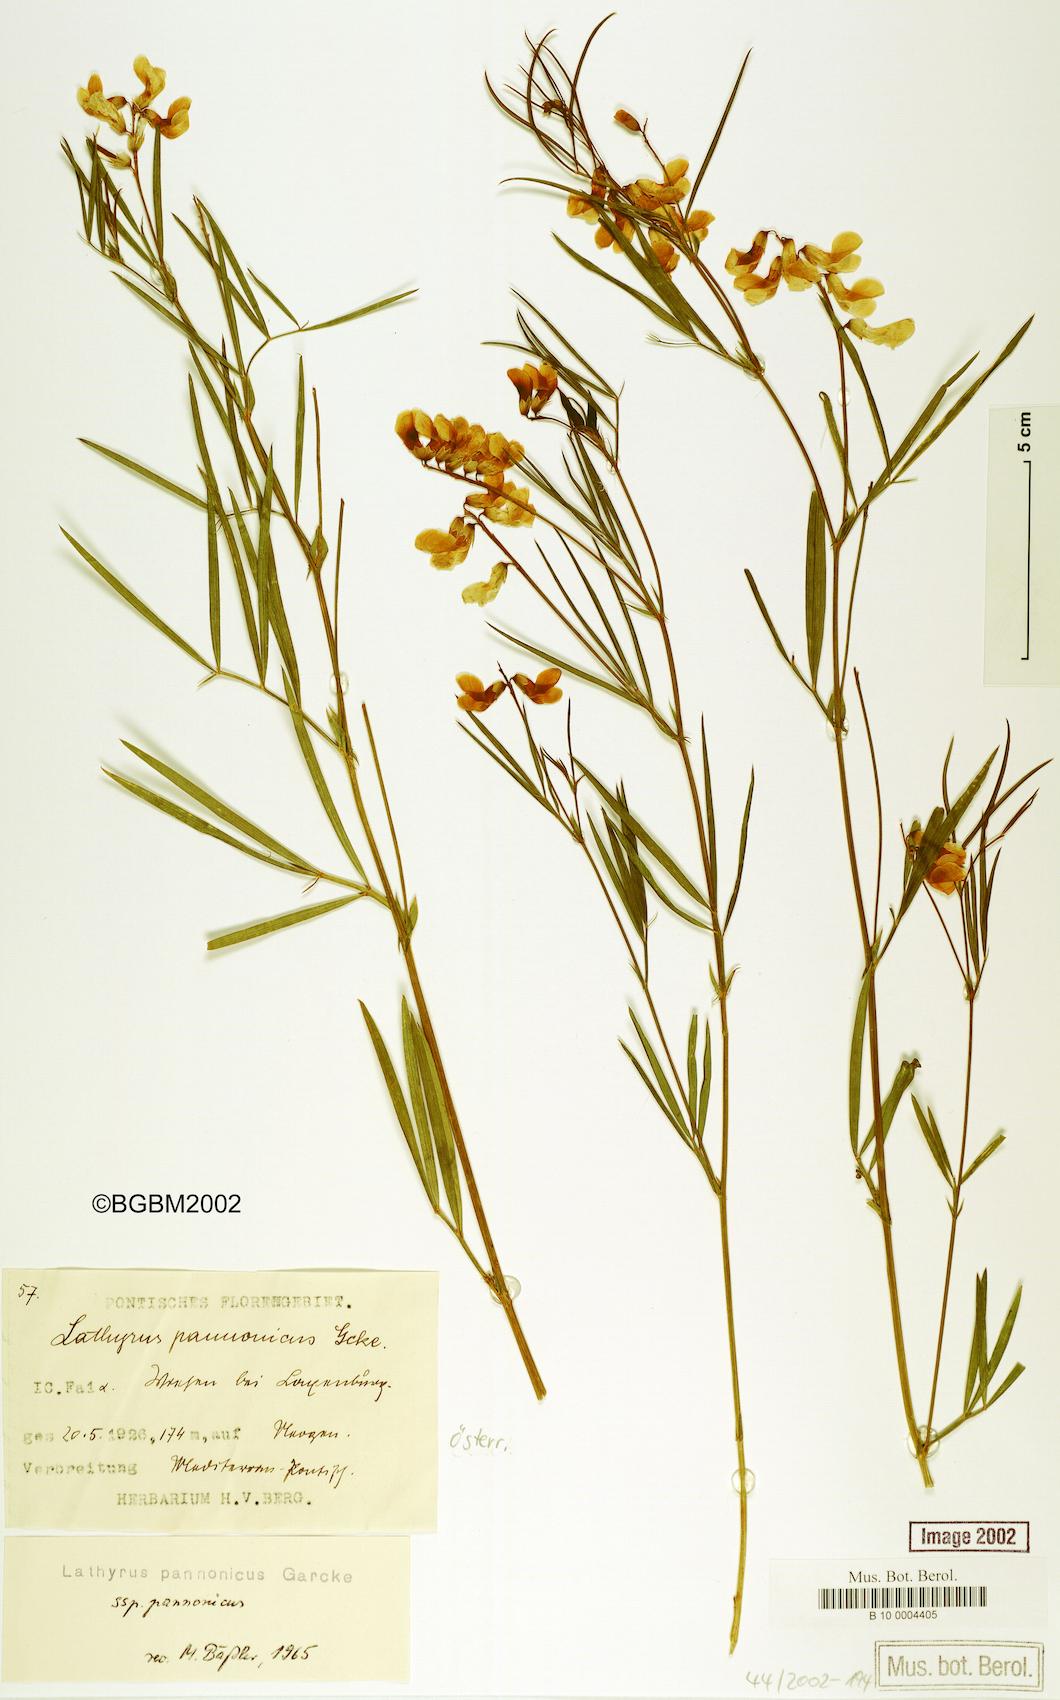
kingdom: Plantae
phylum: Tracheophyta
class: Magnoliopsida
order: Fabales
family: Fabaceae
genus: Lathyrus
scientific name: Lathyrus pannonicus
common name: Pea
